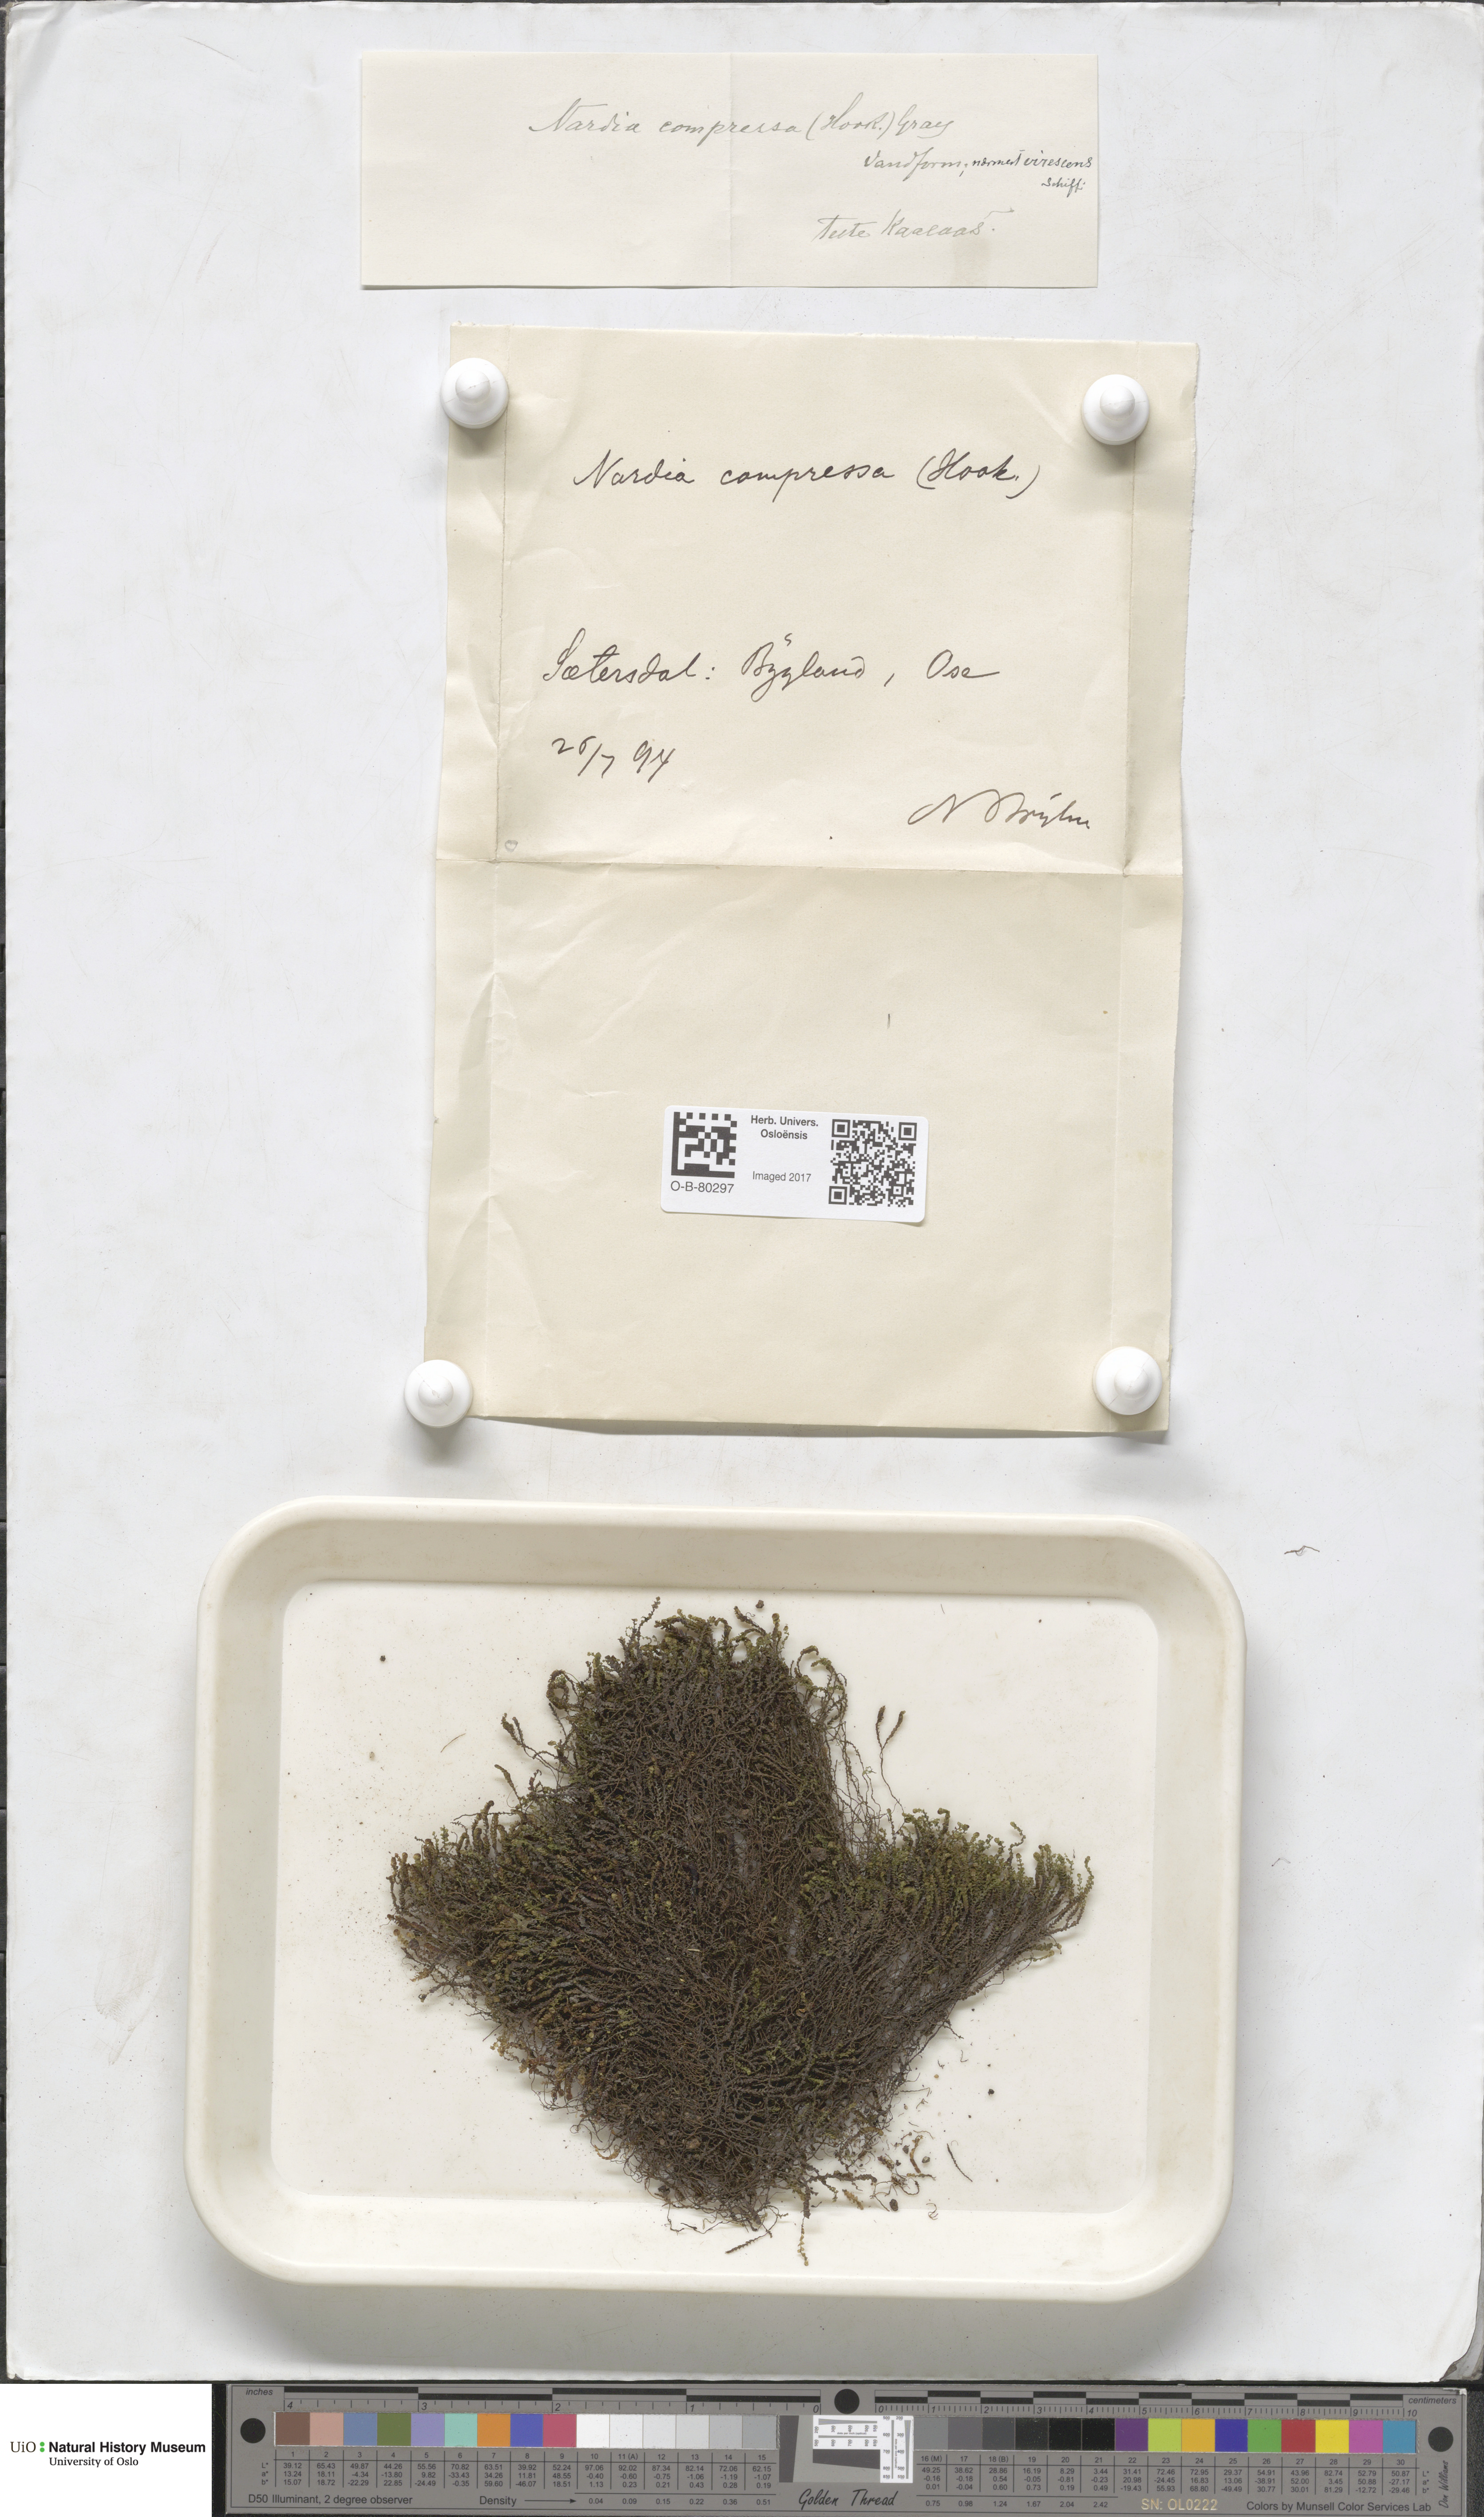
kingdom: Plantae
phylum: Marchantiophyta
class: Jungermanniopsida
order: Jungermanniales
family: Gymnomitriaceae
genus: Nardia
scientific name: Nardia compressa
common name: Compressed flapwort
